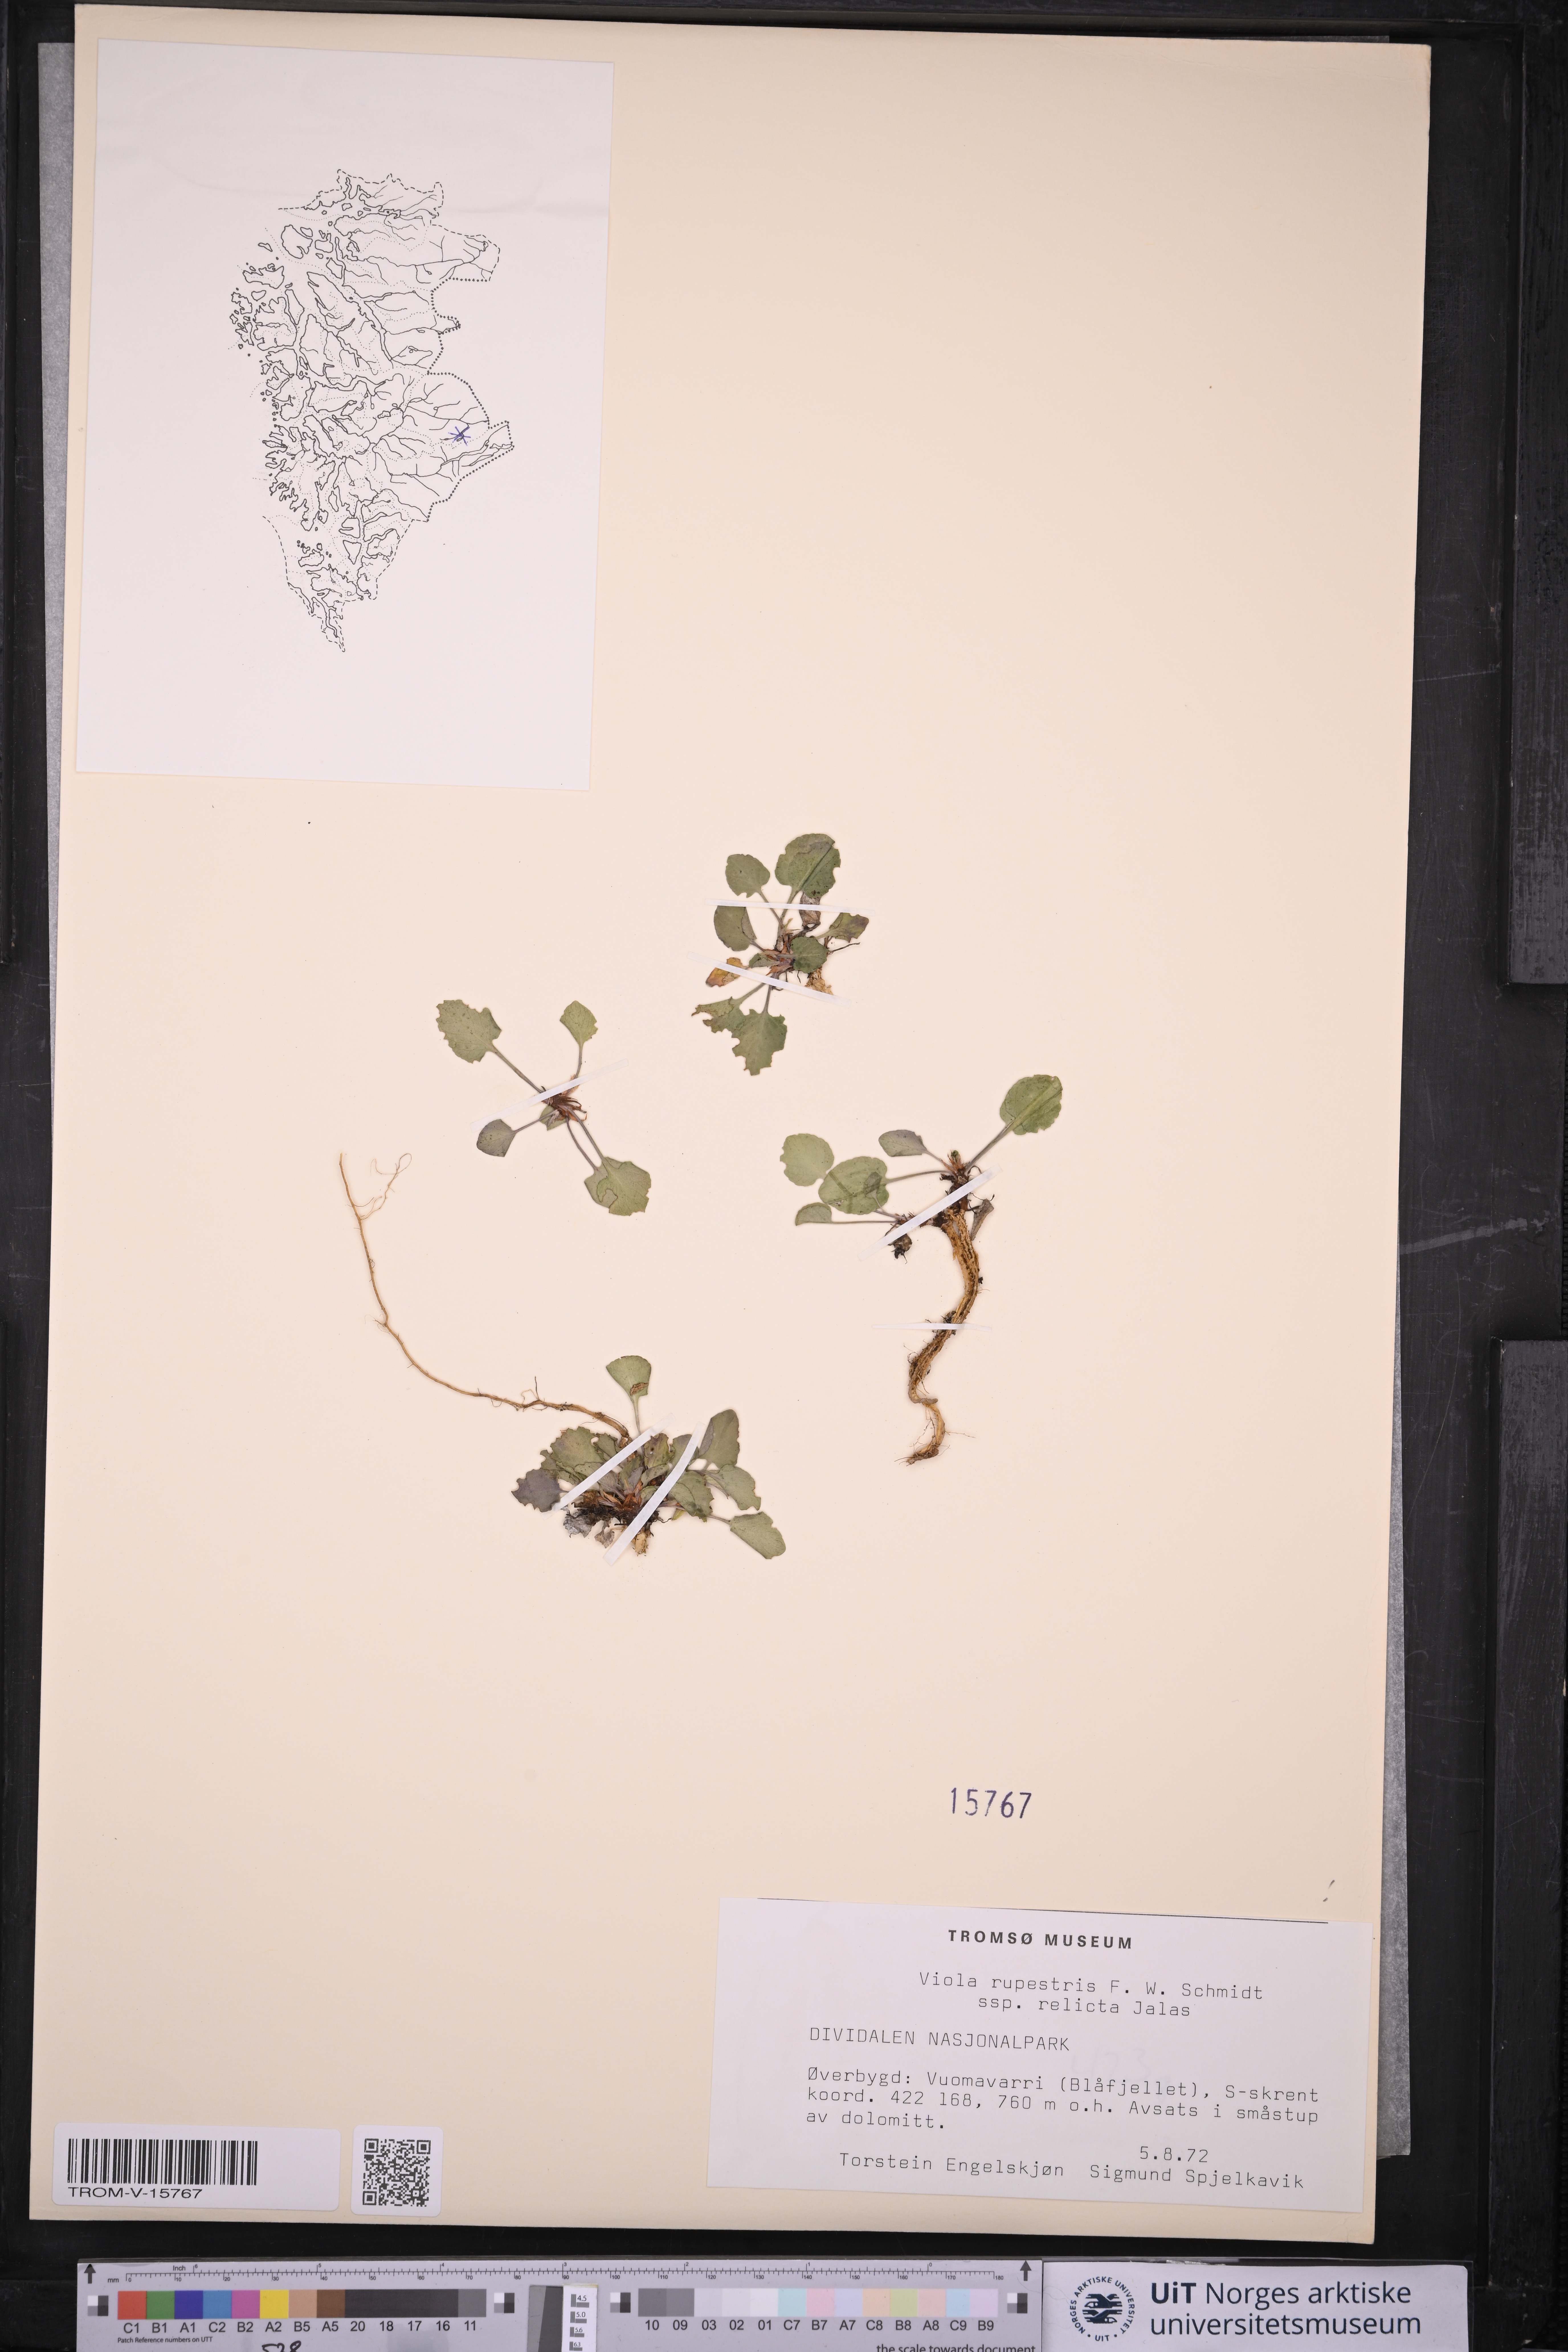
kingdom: Plantae
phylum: Tracheophyta
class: Magnoliopsida
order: Malpighiales
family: Violaceae
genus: Viola
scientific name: Viola rupestris
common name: Teesdale violet
